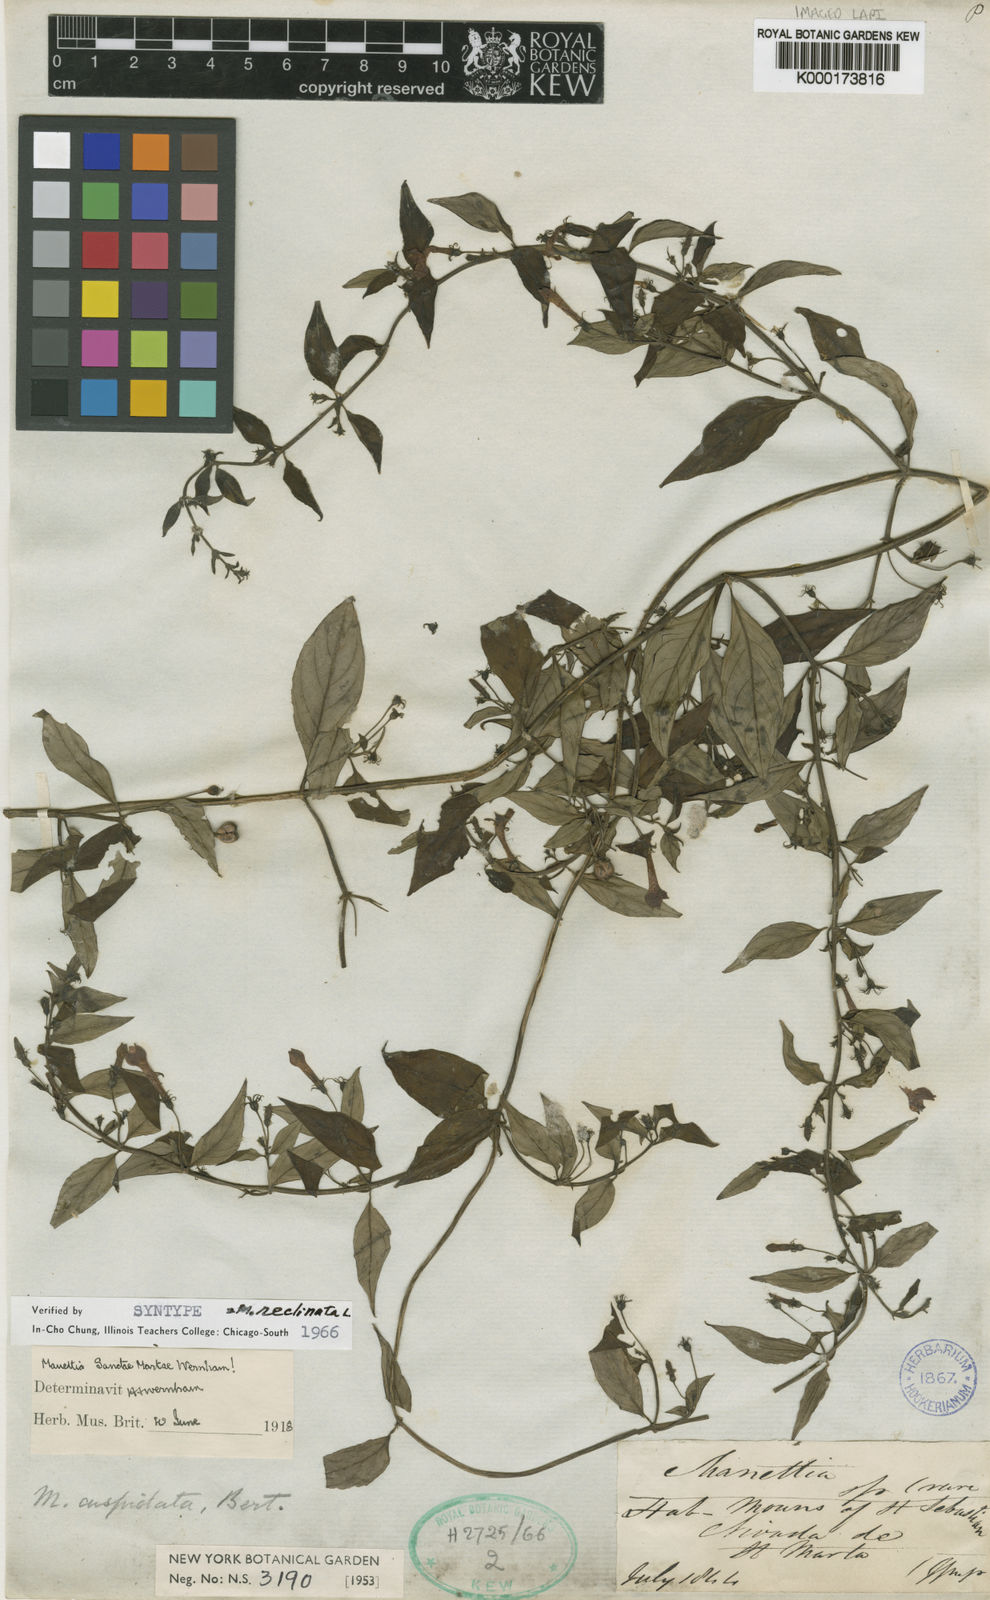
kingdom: Plantae
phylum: Tracheophyta
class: Magnoliopsida
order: Gentianales
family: Rubiaceae
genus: Manettia
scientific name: Manettia sanctae-martae
